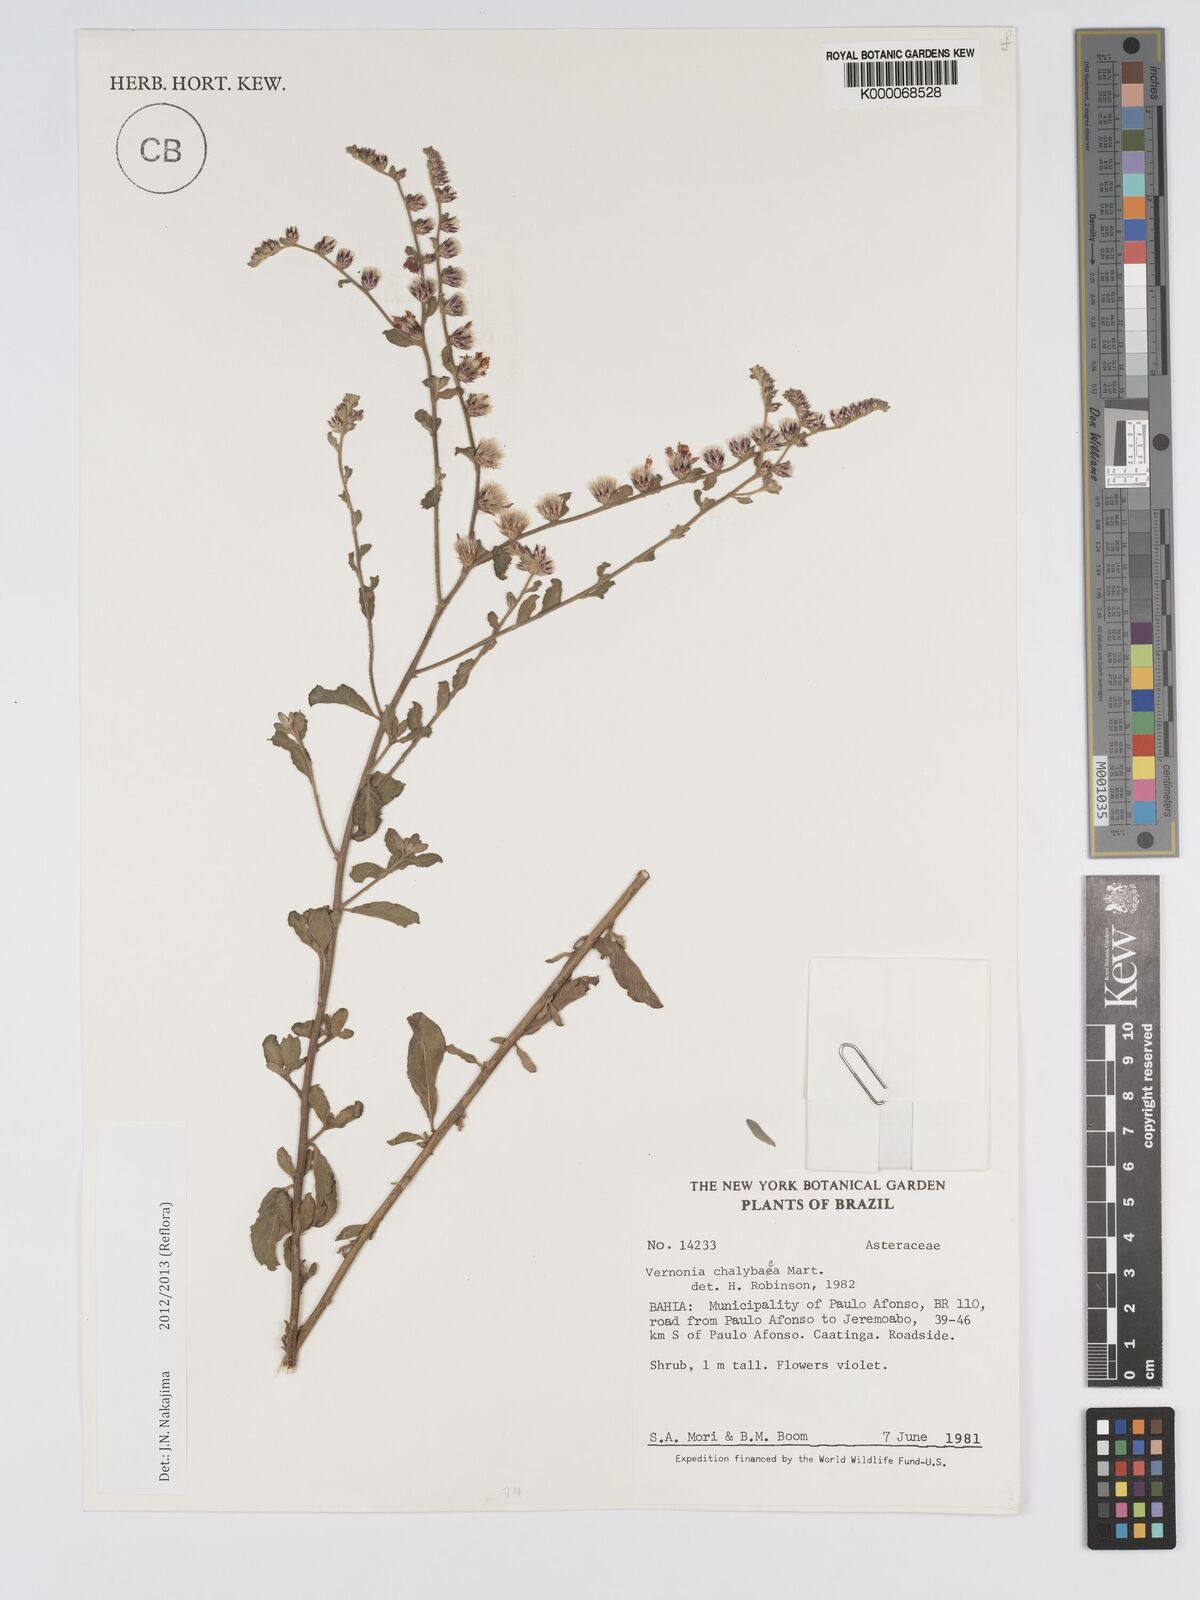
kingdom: Plantae
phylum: Tracheophyta
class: Magnoliopsida
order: Asterales
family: Asteraceae
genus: Lepidaploa
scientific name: Lepidaploa chalybaea
